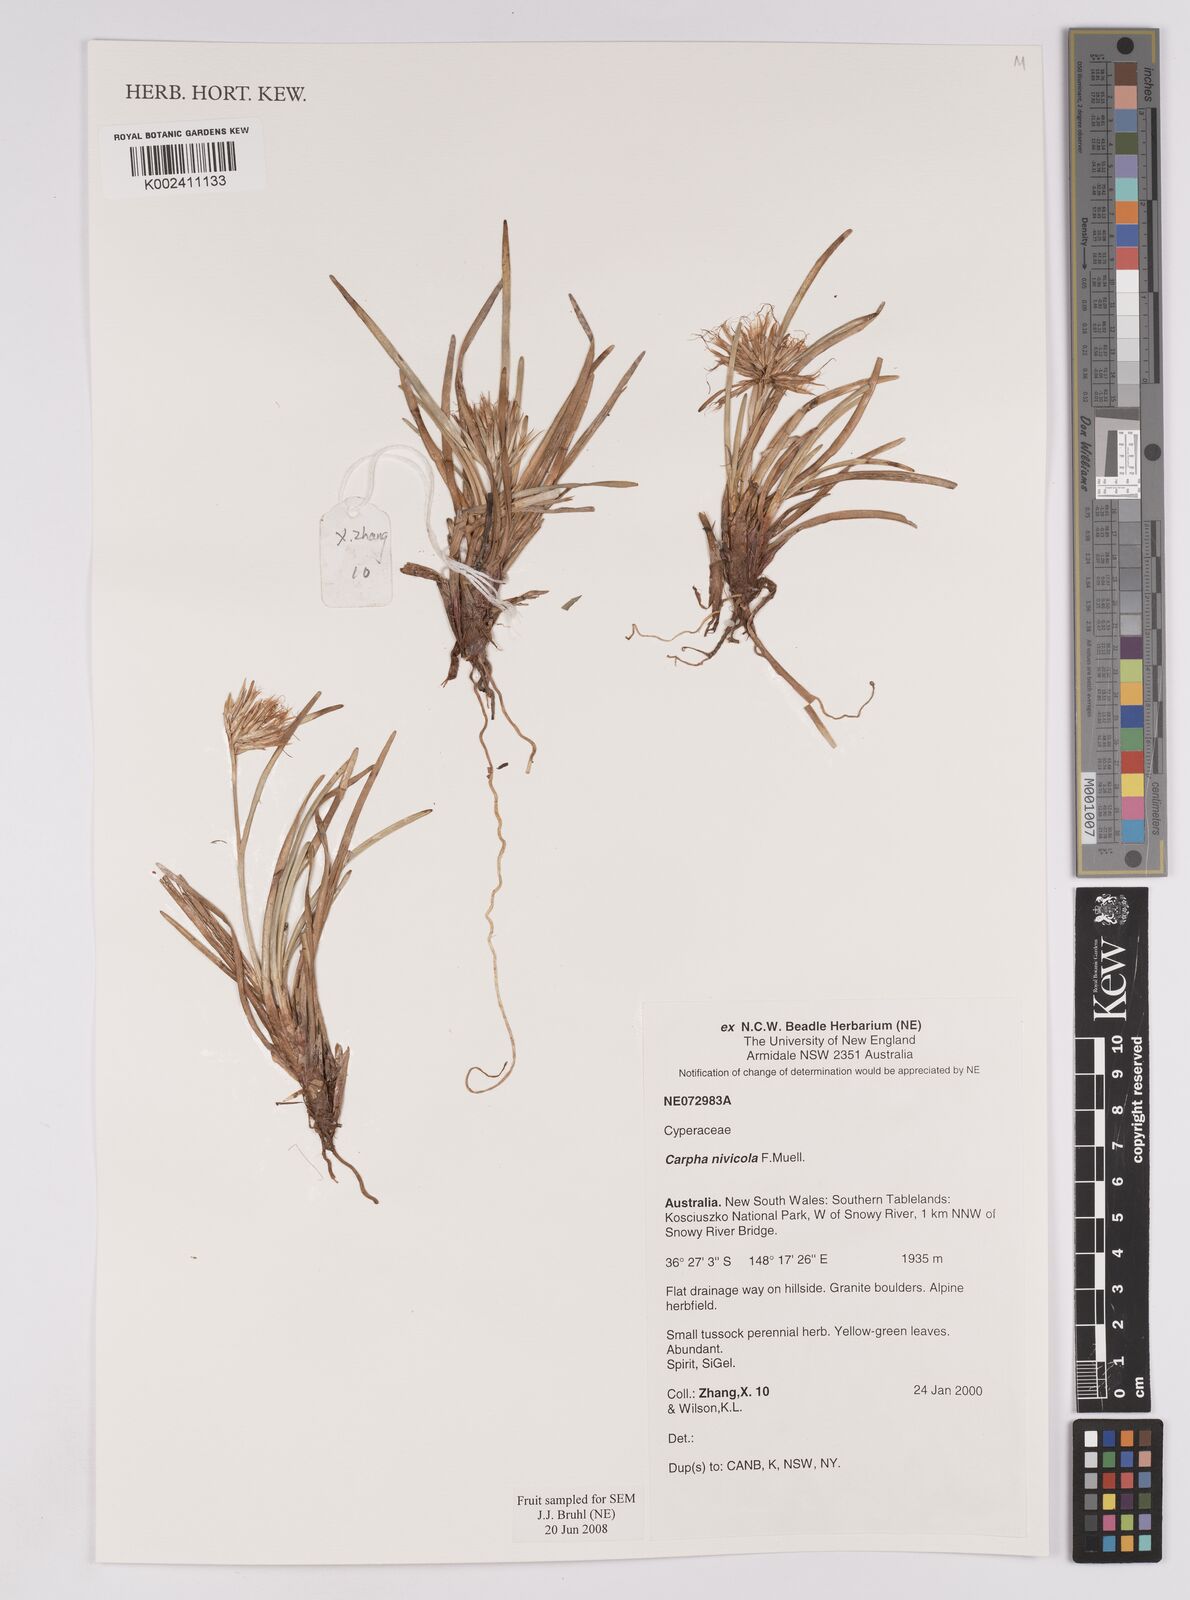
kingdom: Plantae
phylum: Tracheophyta
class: Liliopsida
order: Poales
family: Cyperaceae
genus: Carpha
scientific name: Carpha alpina
